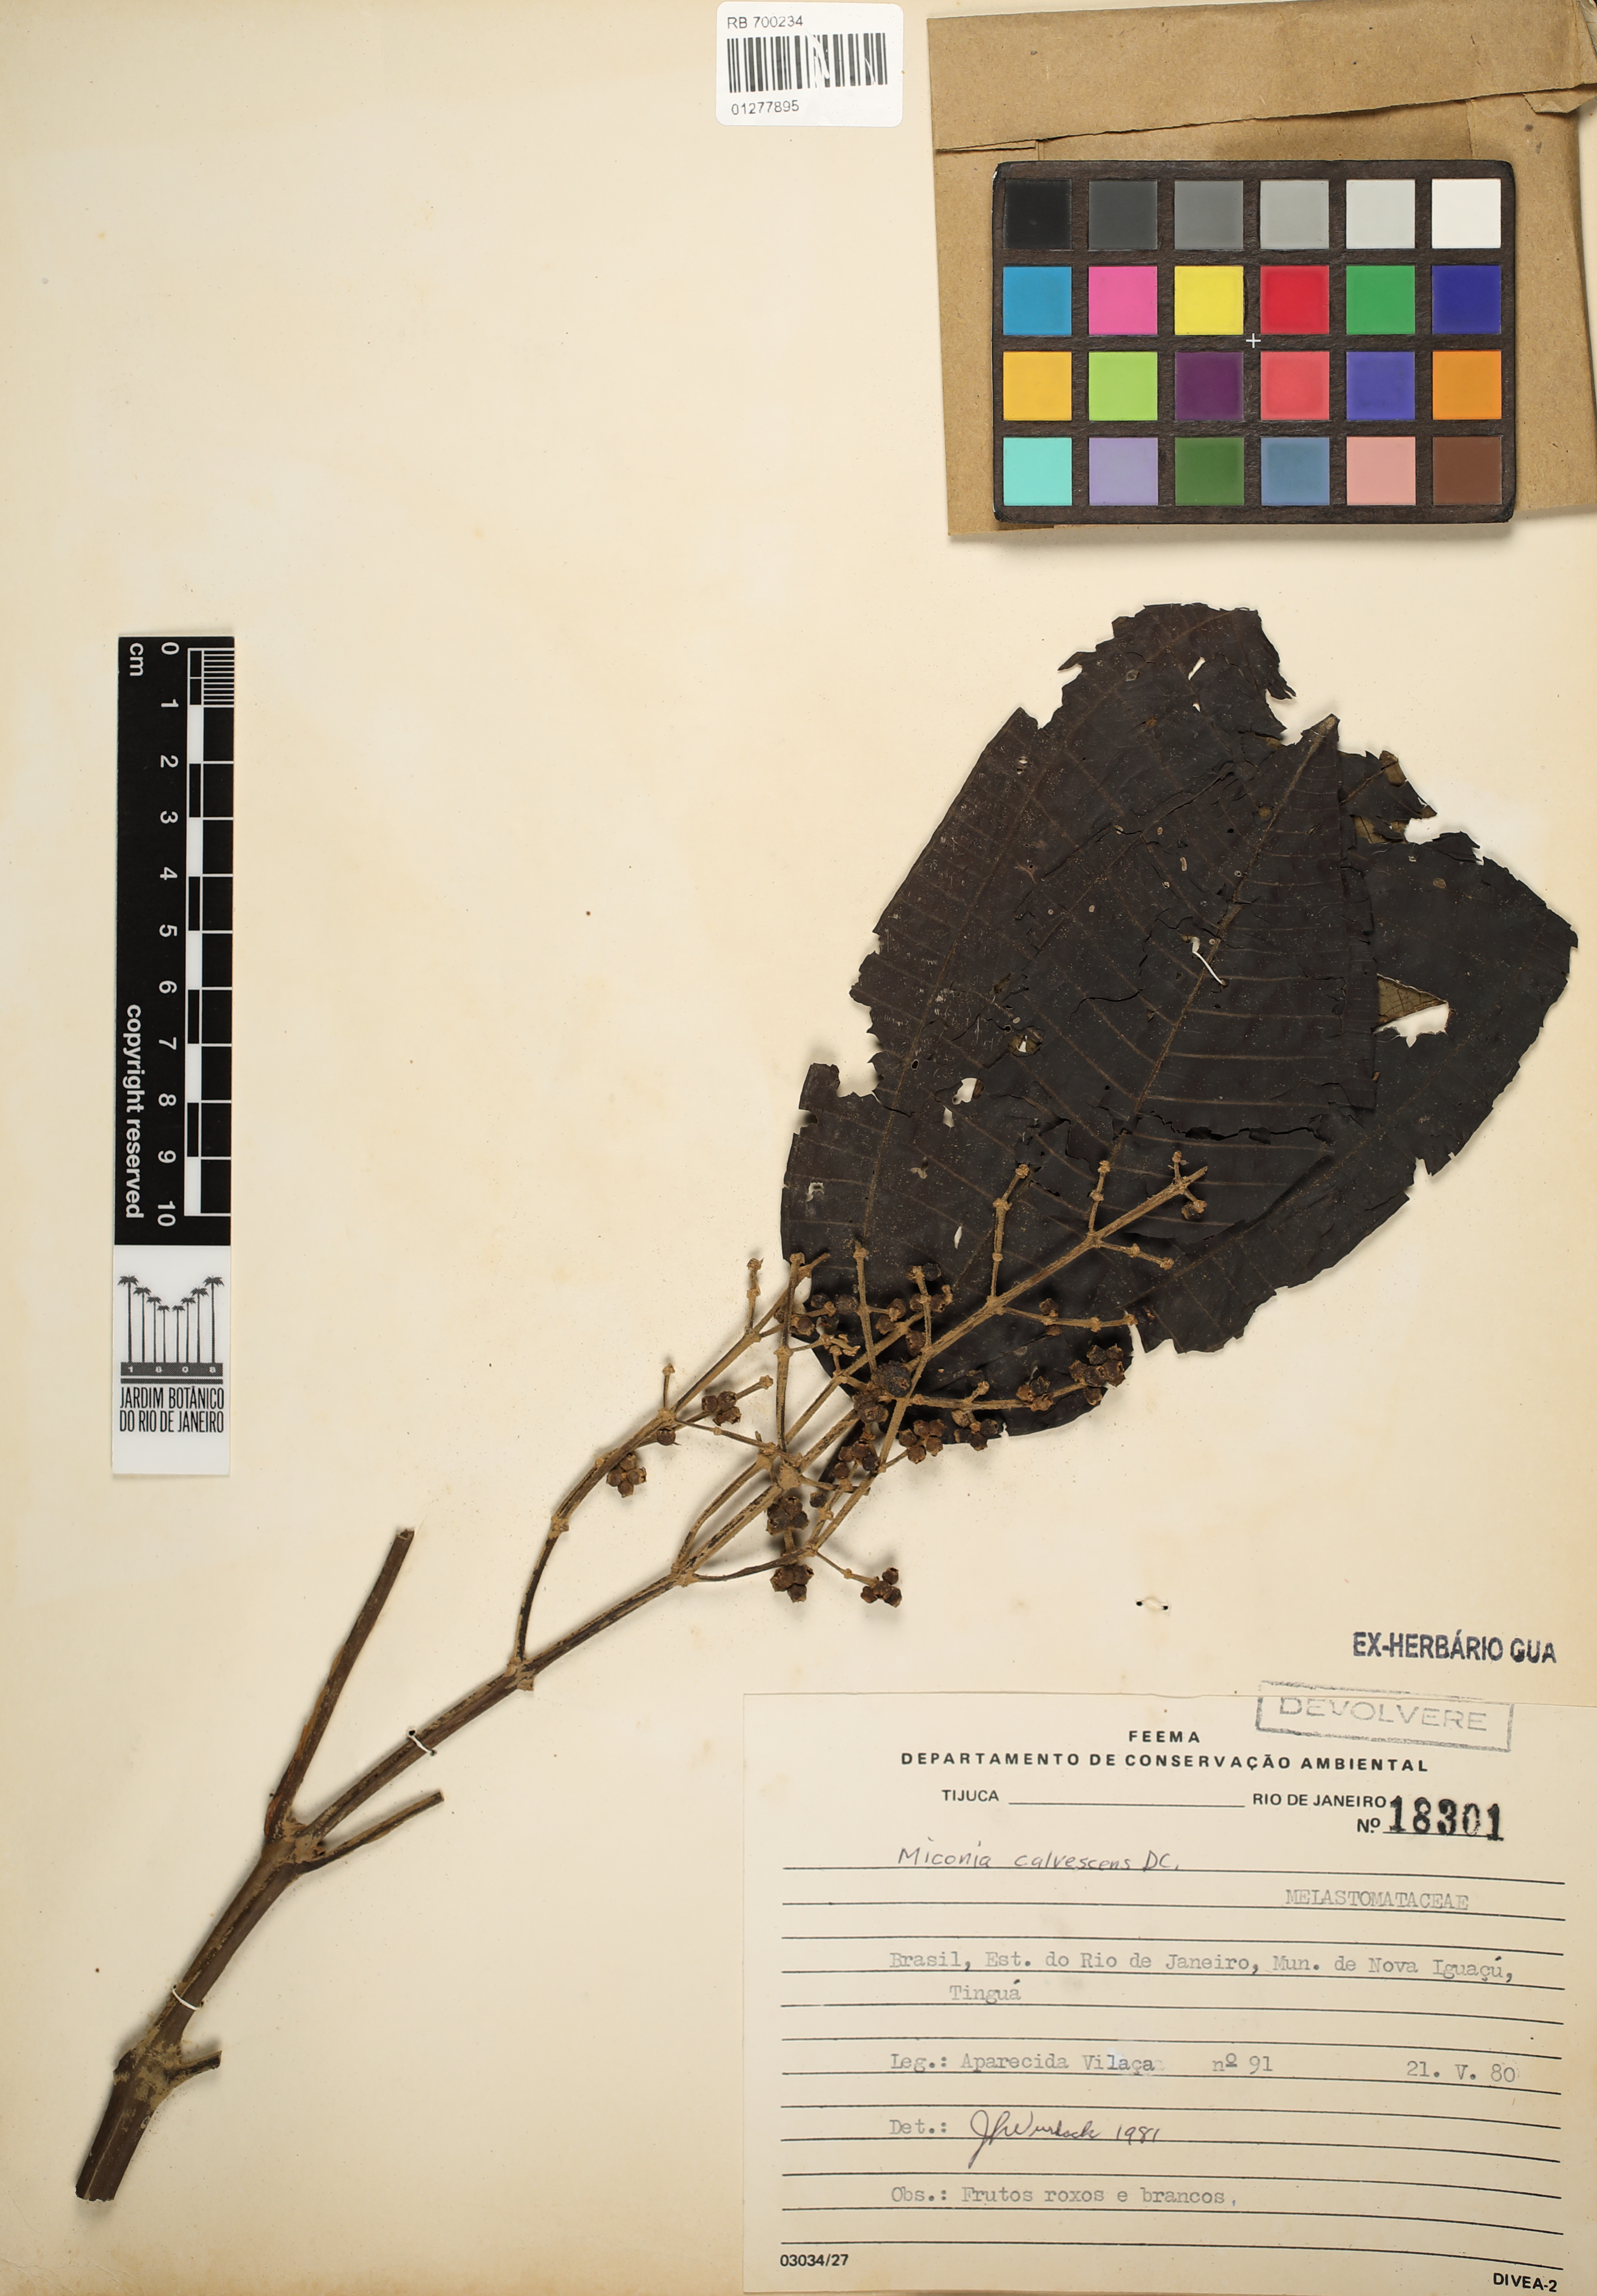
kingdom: Plantae
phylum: Tracheophyta
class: Magnoliopsida
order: Myrtales
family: Melastomataceae
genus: Miconia
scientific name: Miconia calvescens
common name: Purple plague
